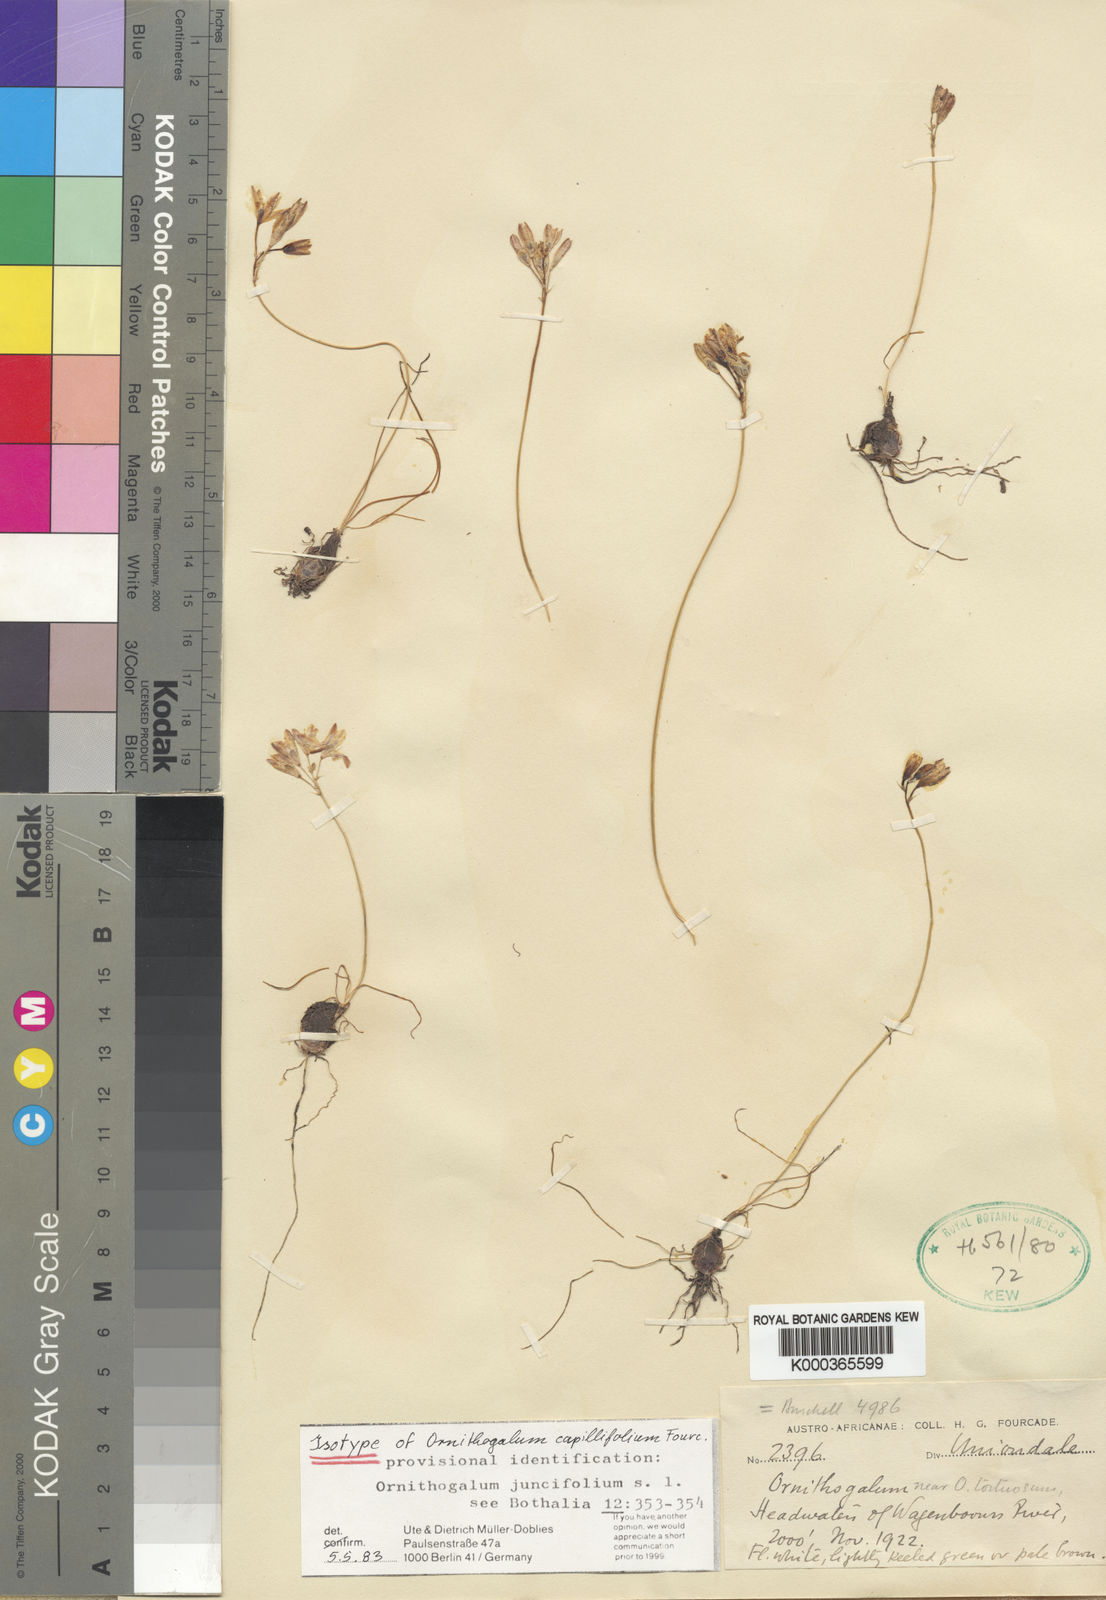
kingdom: Plantae
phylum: Tracheophyta
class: Liliopsida
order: Asparagales
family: Asparagaceae
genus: Ornithogalum
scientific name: Ornithogalum juncifolium
